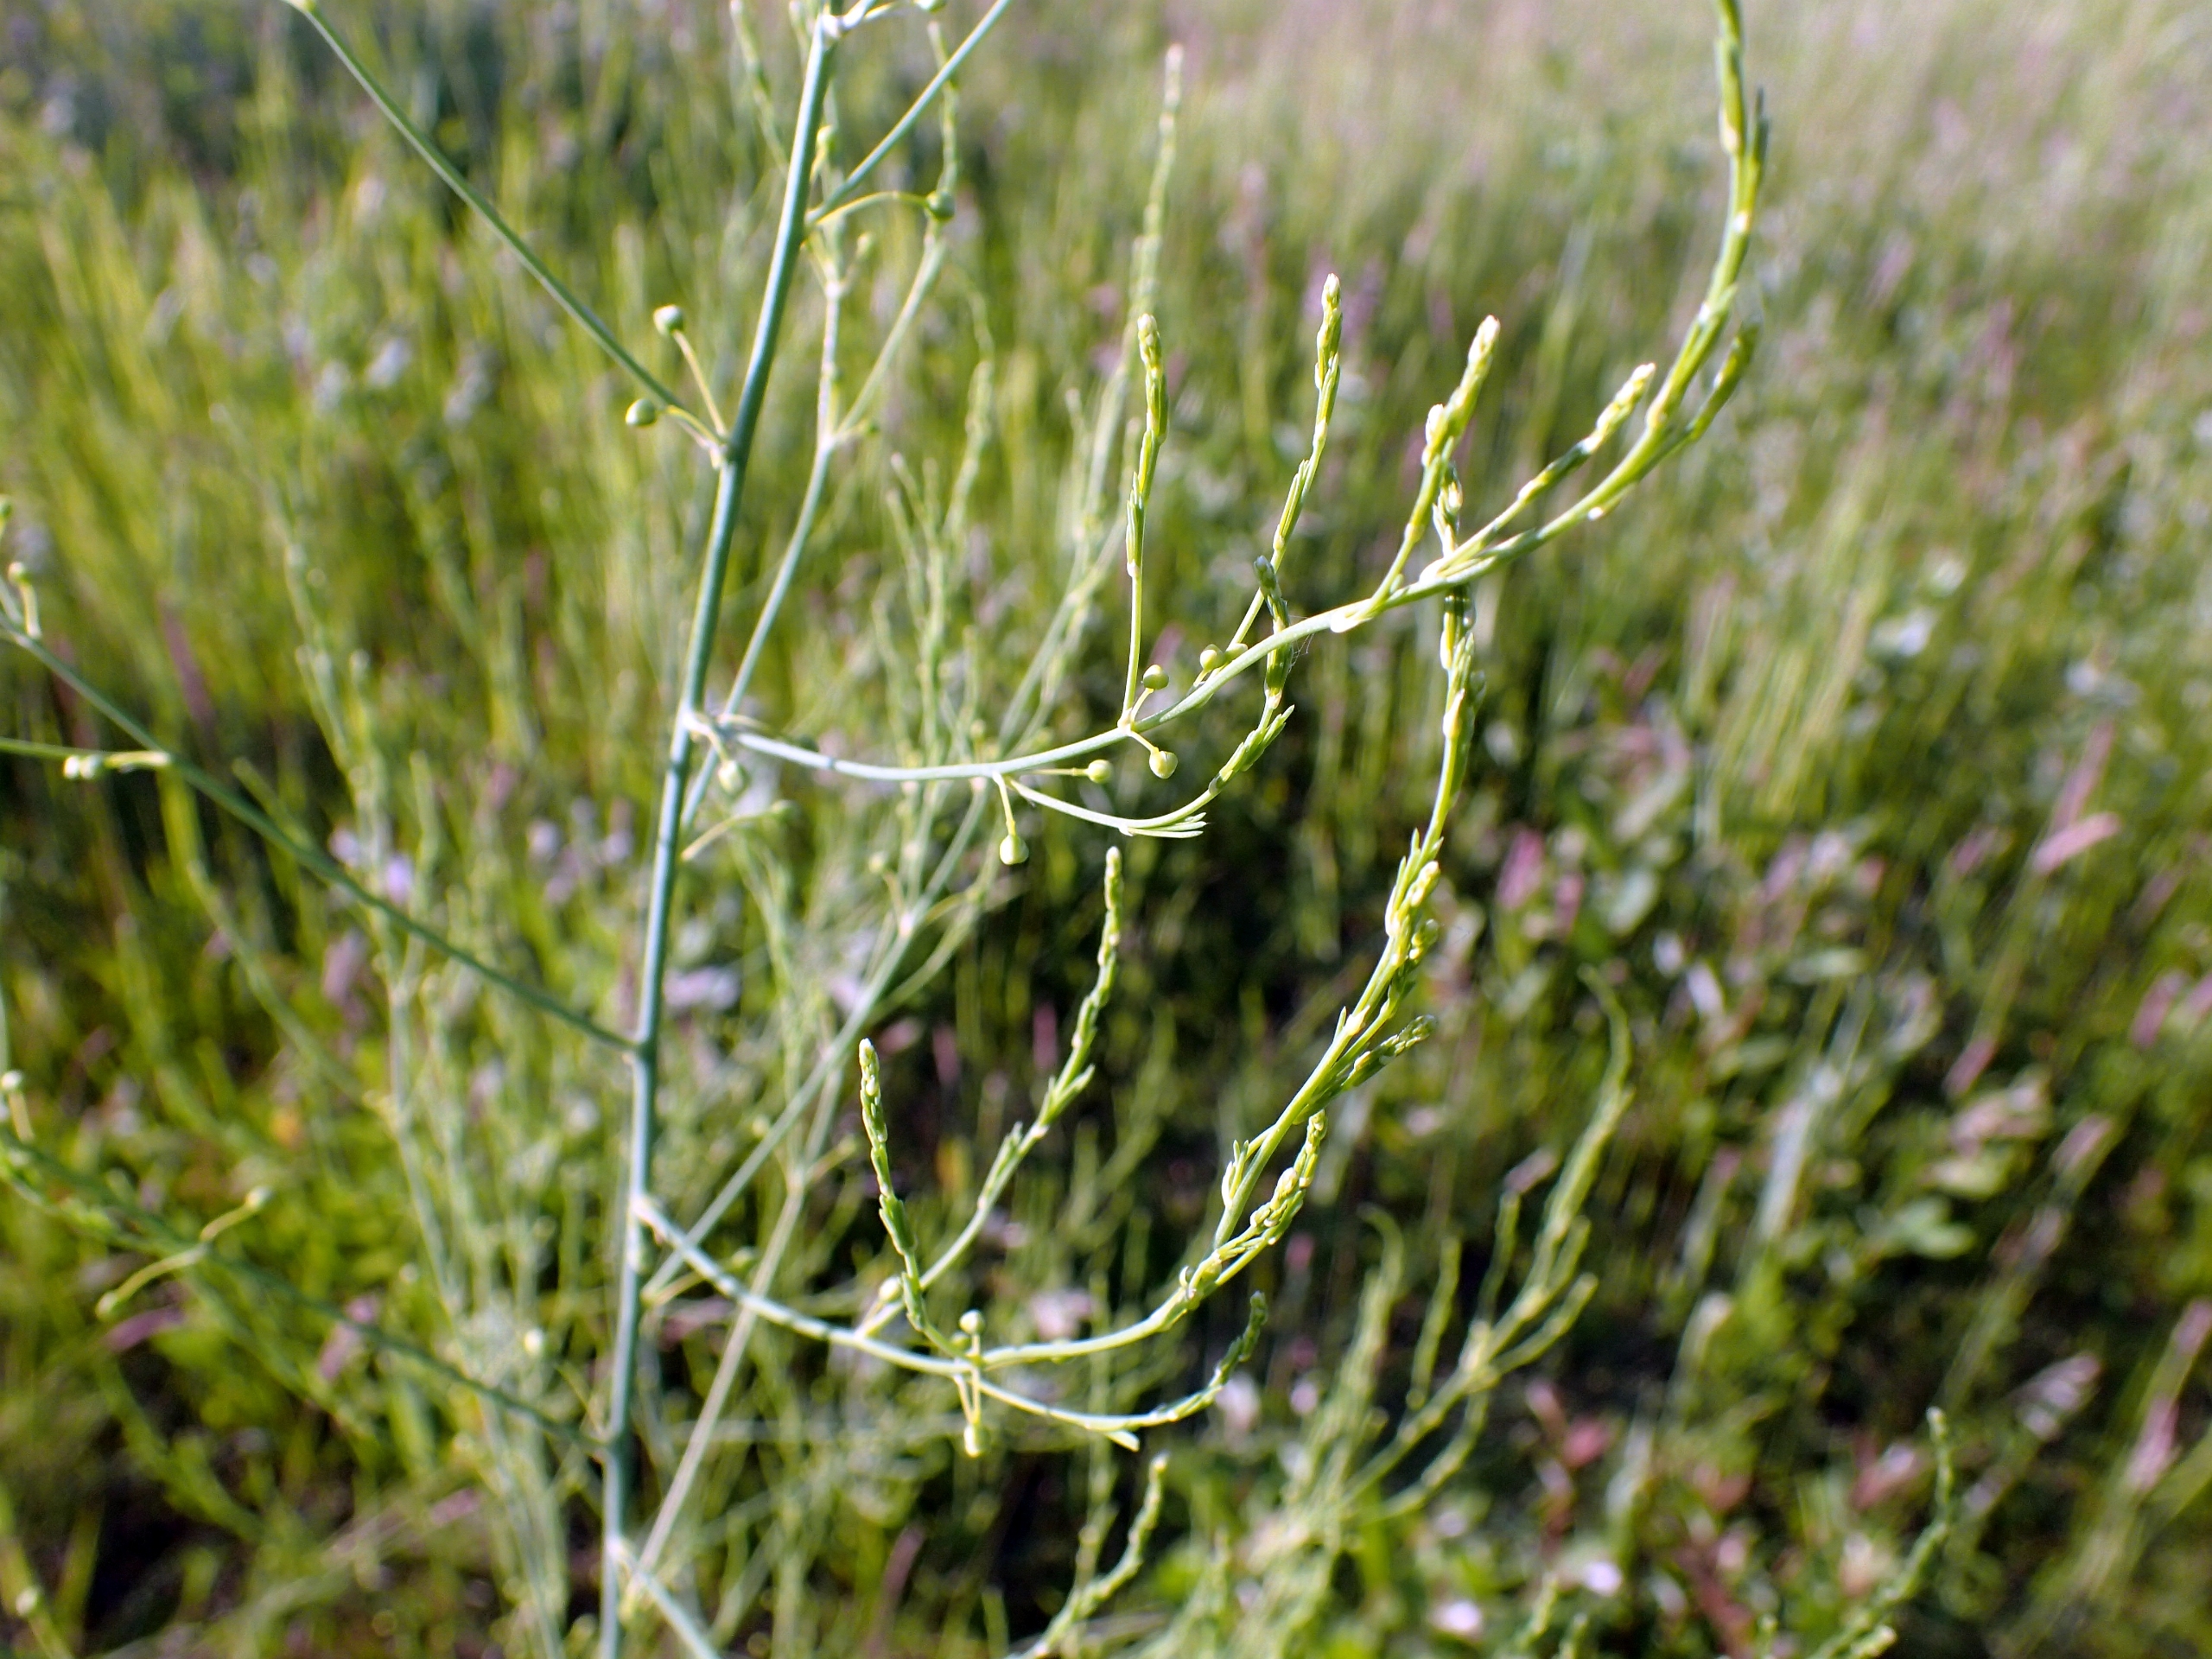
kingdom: Plantae
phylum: Tracheophyta
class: Liliopsida
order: Asparagales
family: Asparagaceae
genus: Asparagus
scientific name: Asparagus officinalis
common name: Asparges
